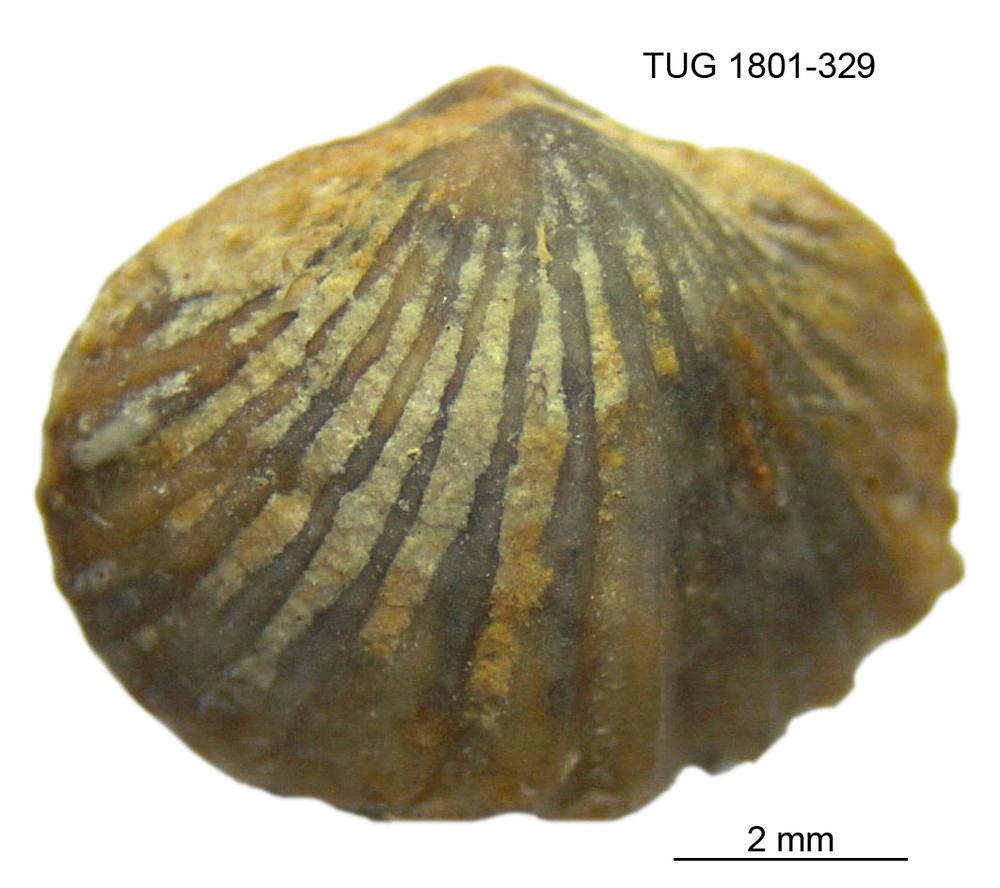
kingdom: Animalia
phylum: Brachiopoda
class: Rhynchonellata
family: Plectorthidae
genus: Platystrophia
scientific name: Platystrophia dentata
